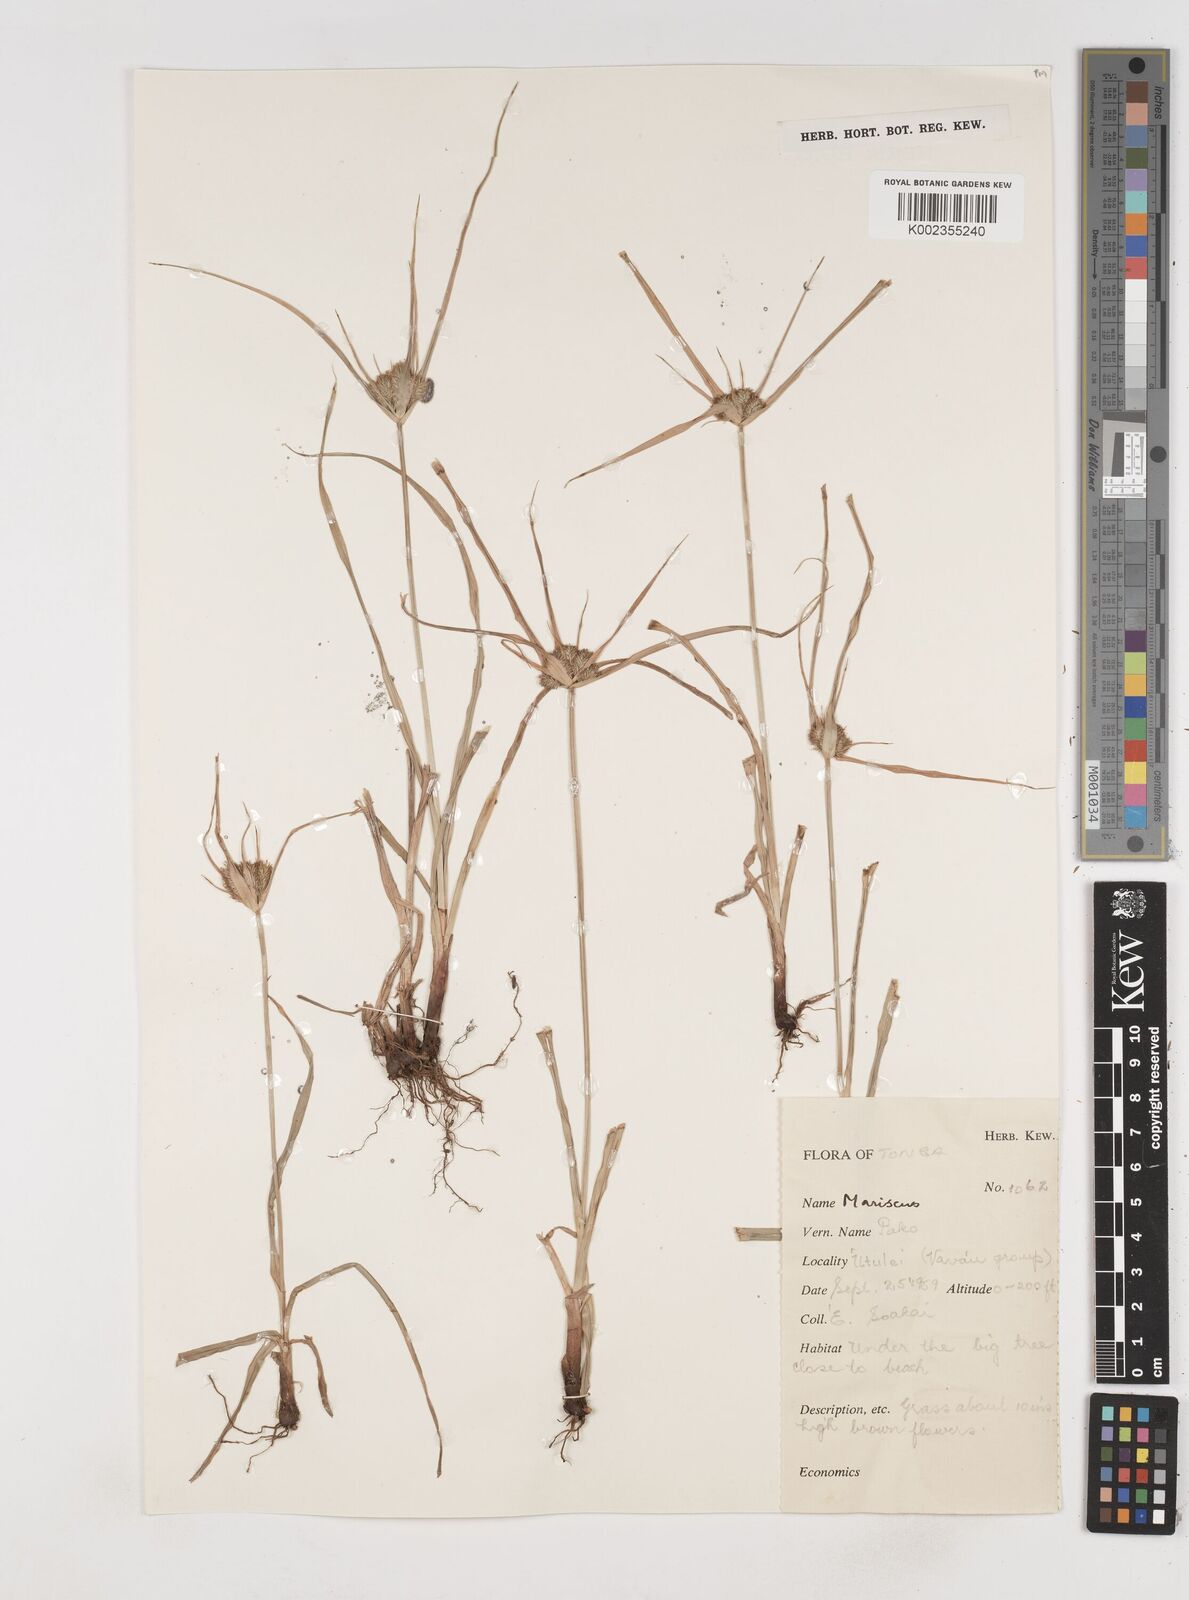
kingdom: Plantae
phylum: Tracheophyta
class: Liliopsida
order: Poales
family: Cyperaceae
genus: Cyperus
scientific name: Cyperus cyperinus
